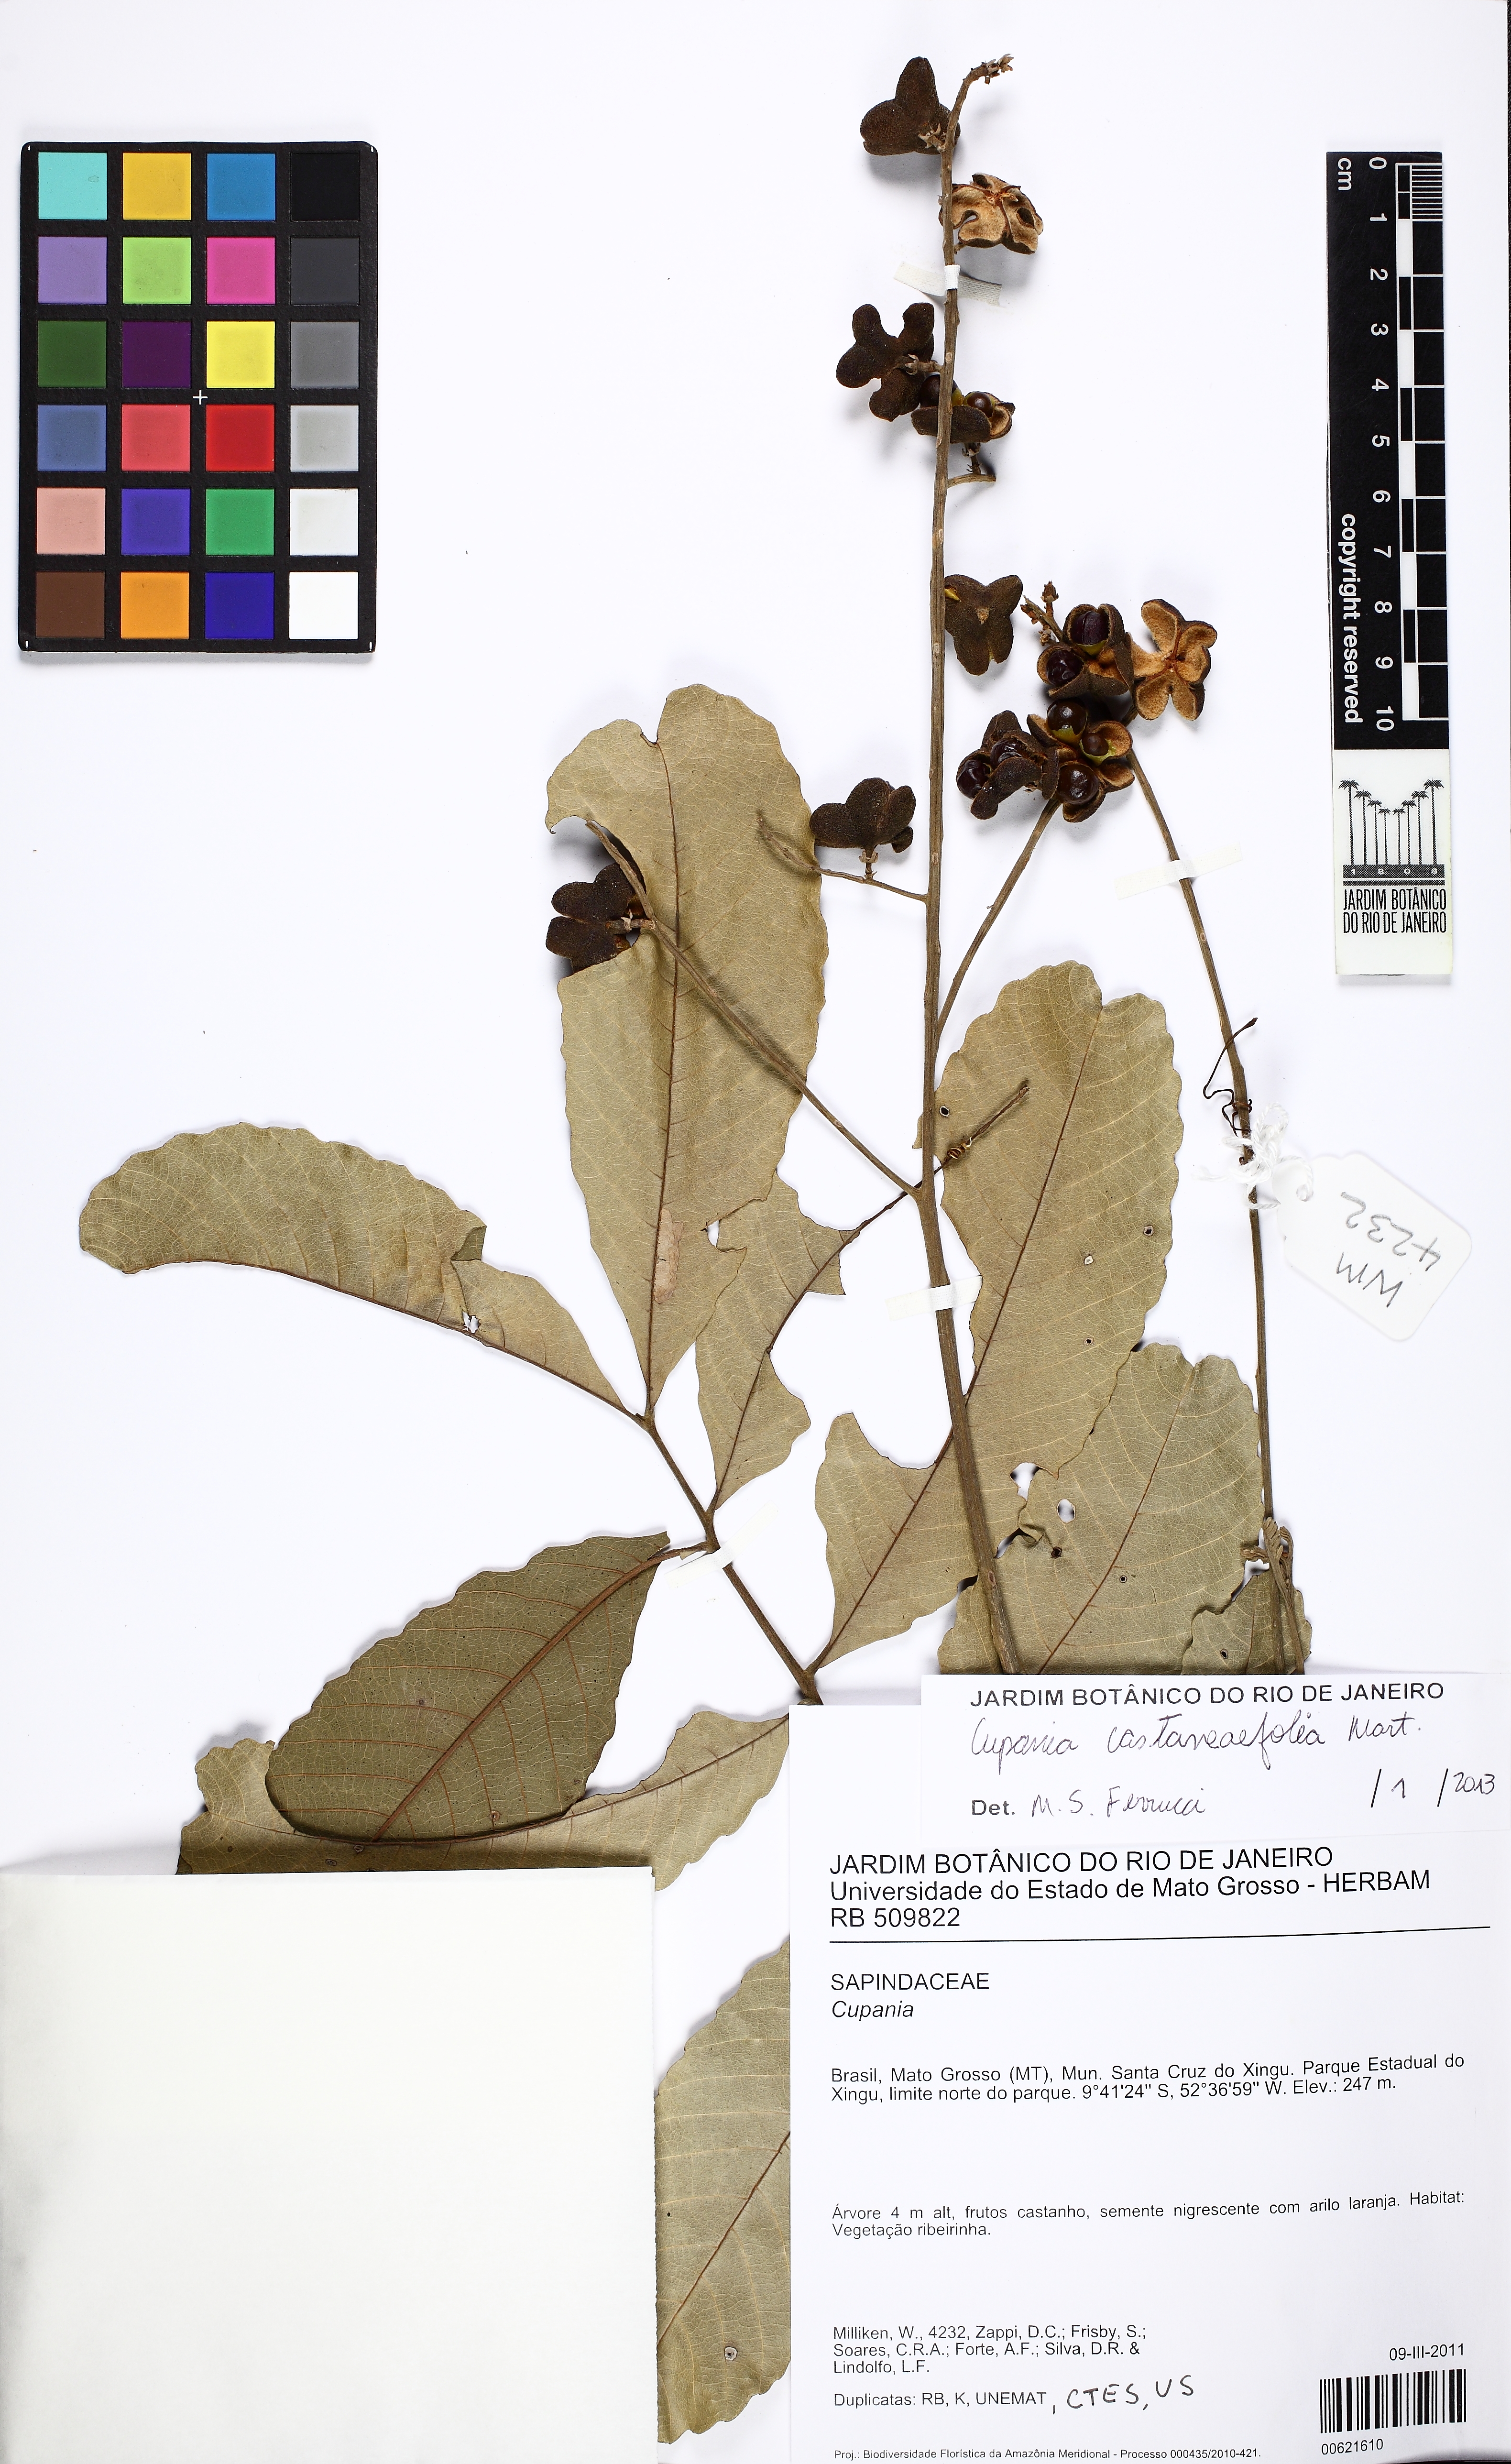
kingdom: Plantae
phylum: Tracheophyta
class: Magnoliopsida
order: Sapindales
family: Sapindaceae
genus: Cupania
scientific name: Cupania castaneaefolia
